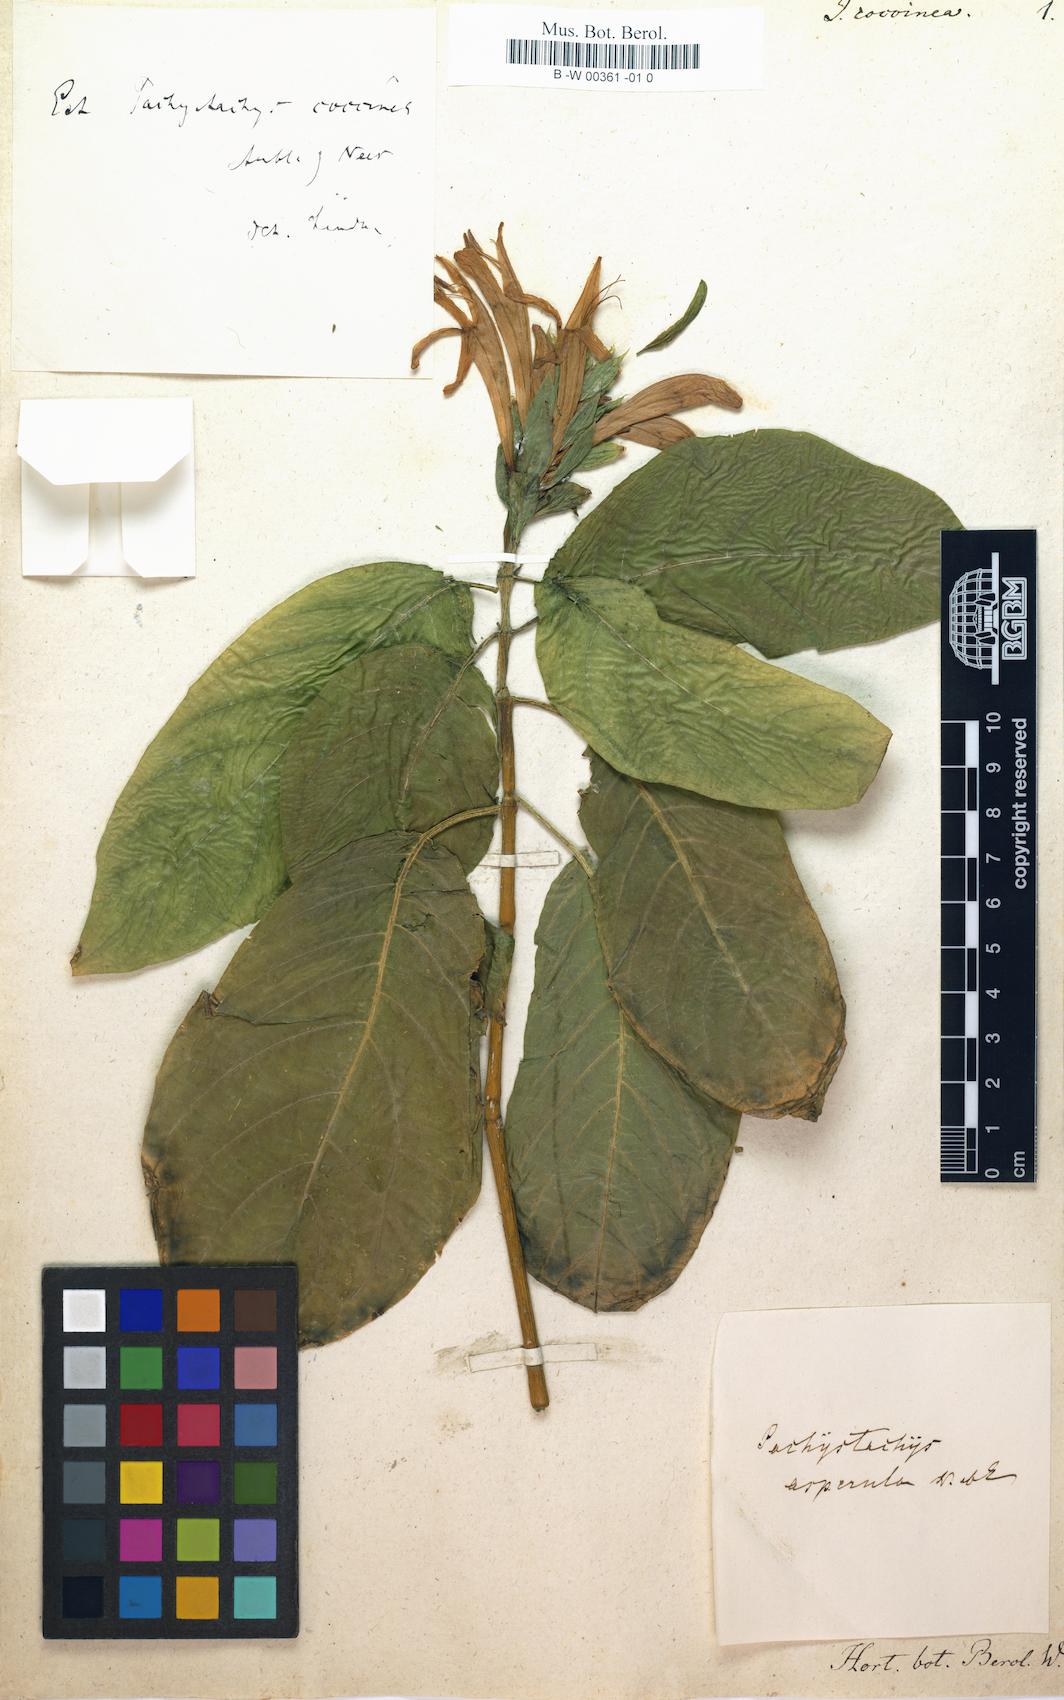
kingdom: Plantae
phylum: Tracheophyta
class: Magnoliopsida
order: Lamiales
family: Acanthaceae
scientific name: Acanthaceae
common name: Acanthaceae
